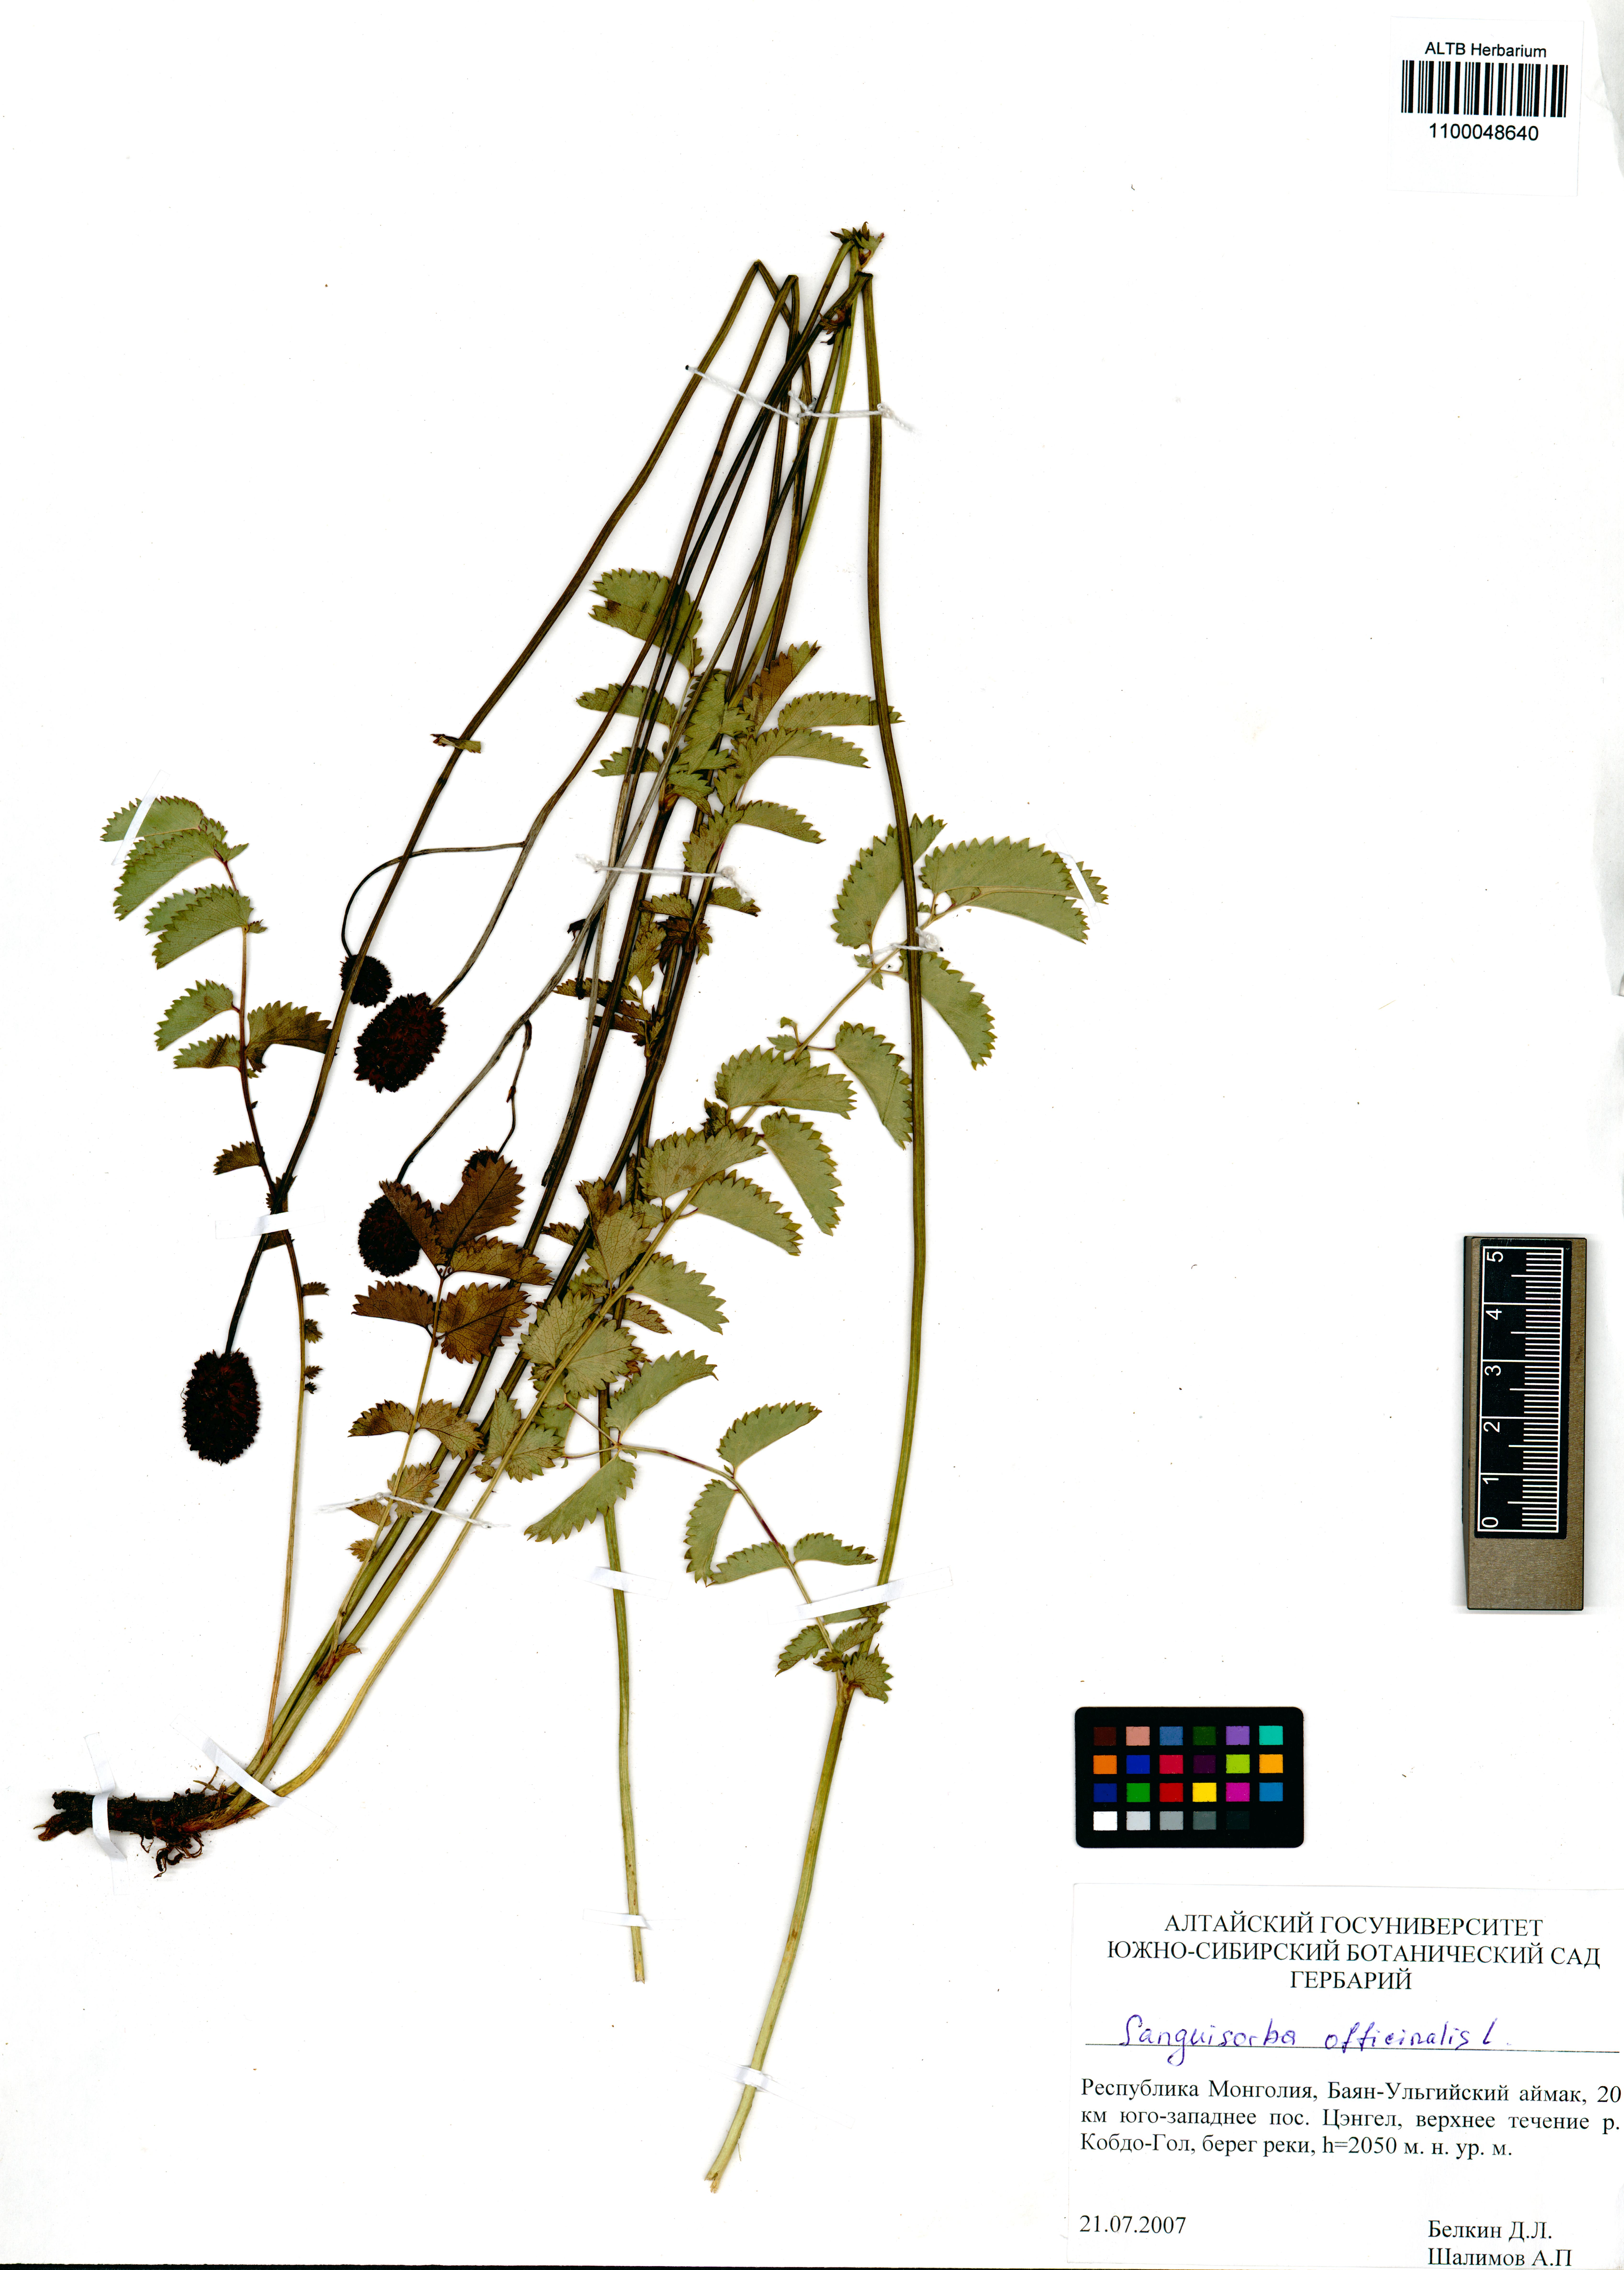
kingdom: Plantae
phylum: Tracheophyta
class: Magnoliopsida
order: Rosales
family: Rosaceae
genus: Sanguisorba
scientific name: Sanguisorba officinalis
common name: Great burnet
